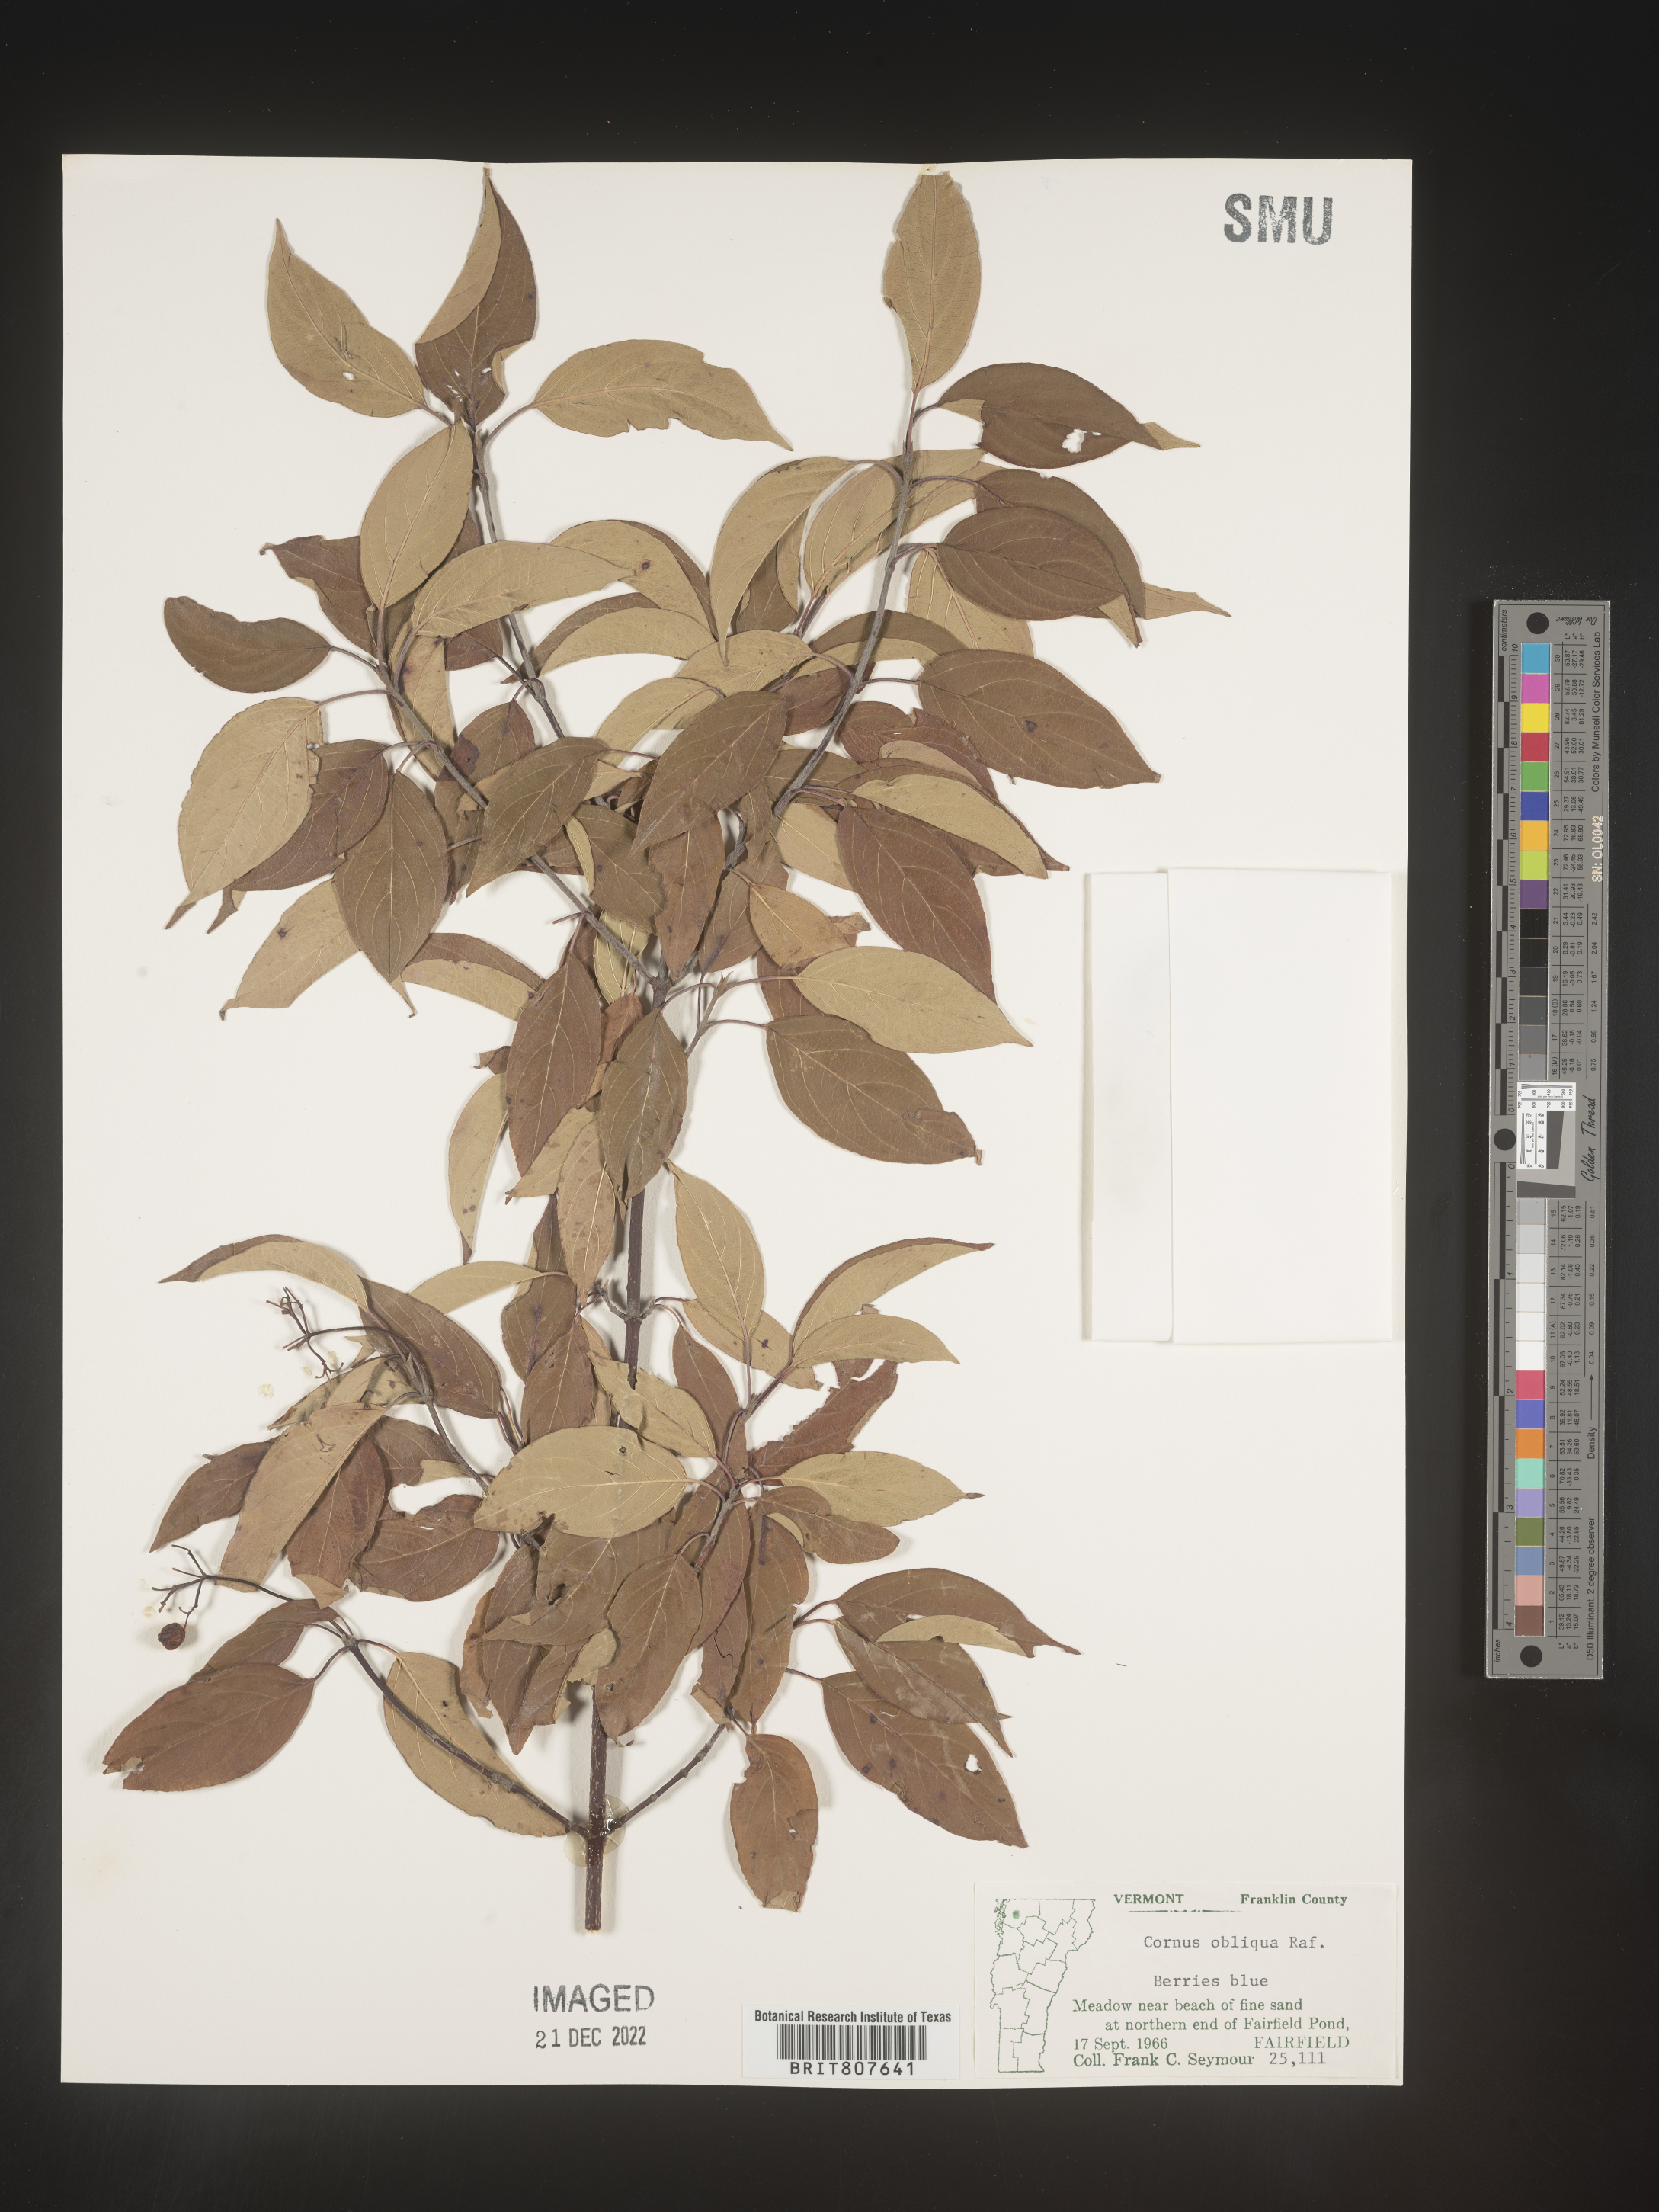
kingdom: Plantae
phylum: Tracheophyta
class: Magnoliopsida
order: Cornales
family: Cornaceae
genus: Cornus
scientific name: Cornus obliqua
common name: Pale dogwood
